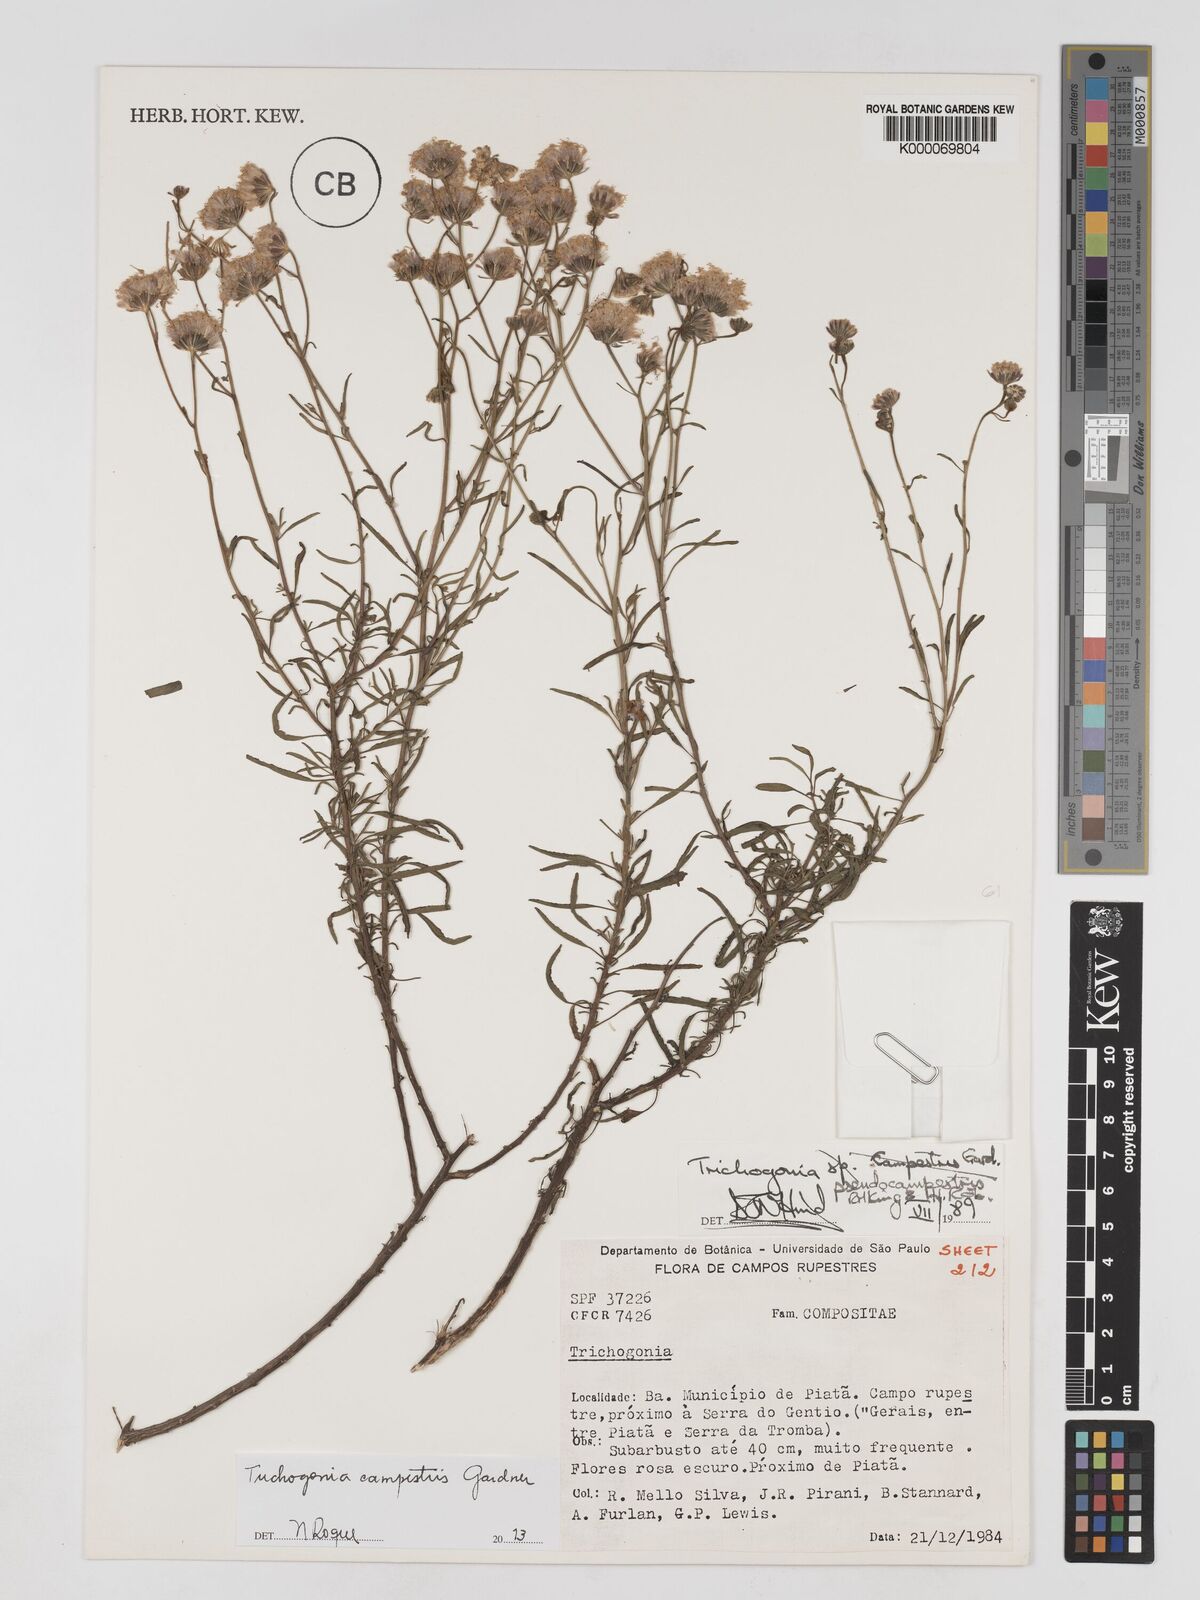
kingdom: Plantae
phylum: Tracheophyta
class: Magnoliopsida
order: Asterales
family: Asteraceae
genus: Trichogonia
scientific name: Trichogonia campestris
